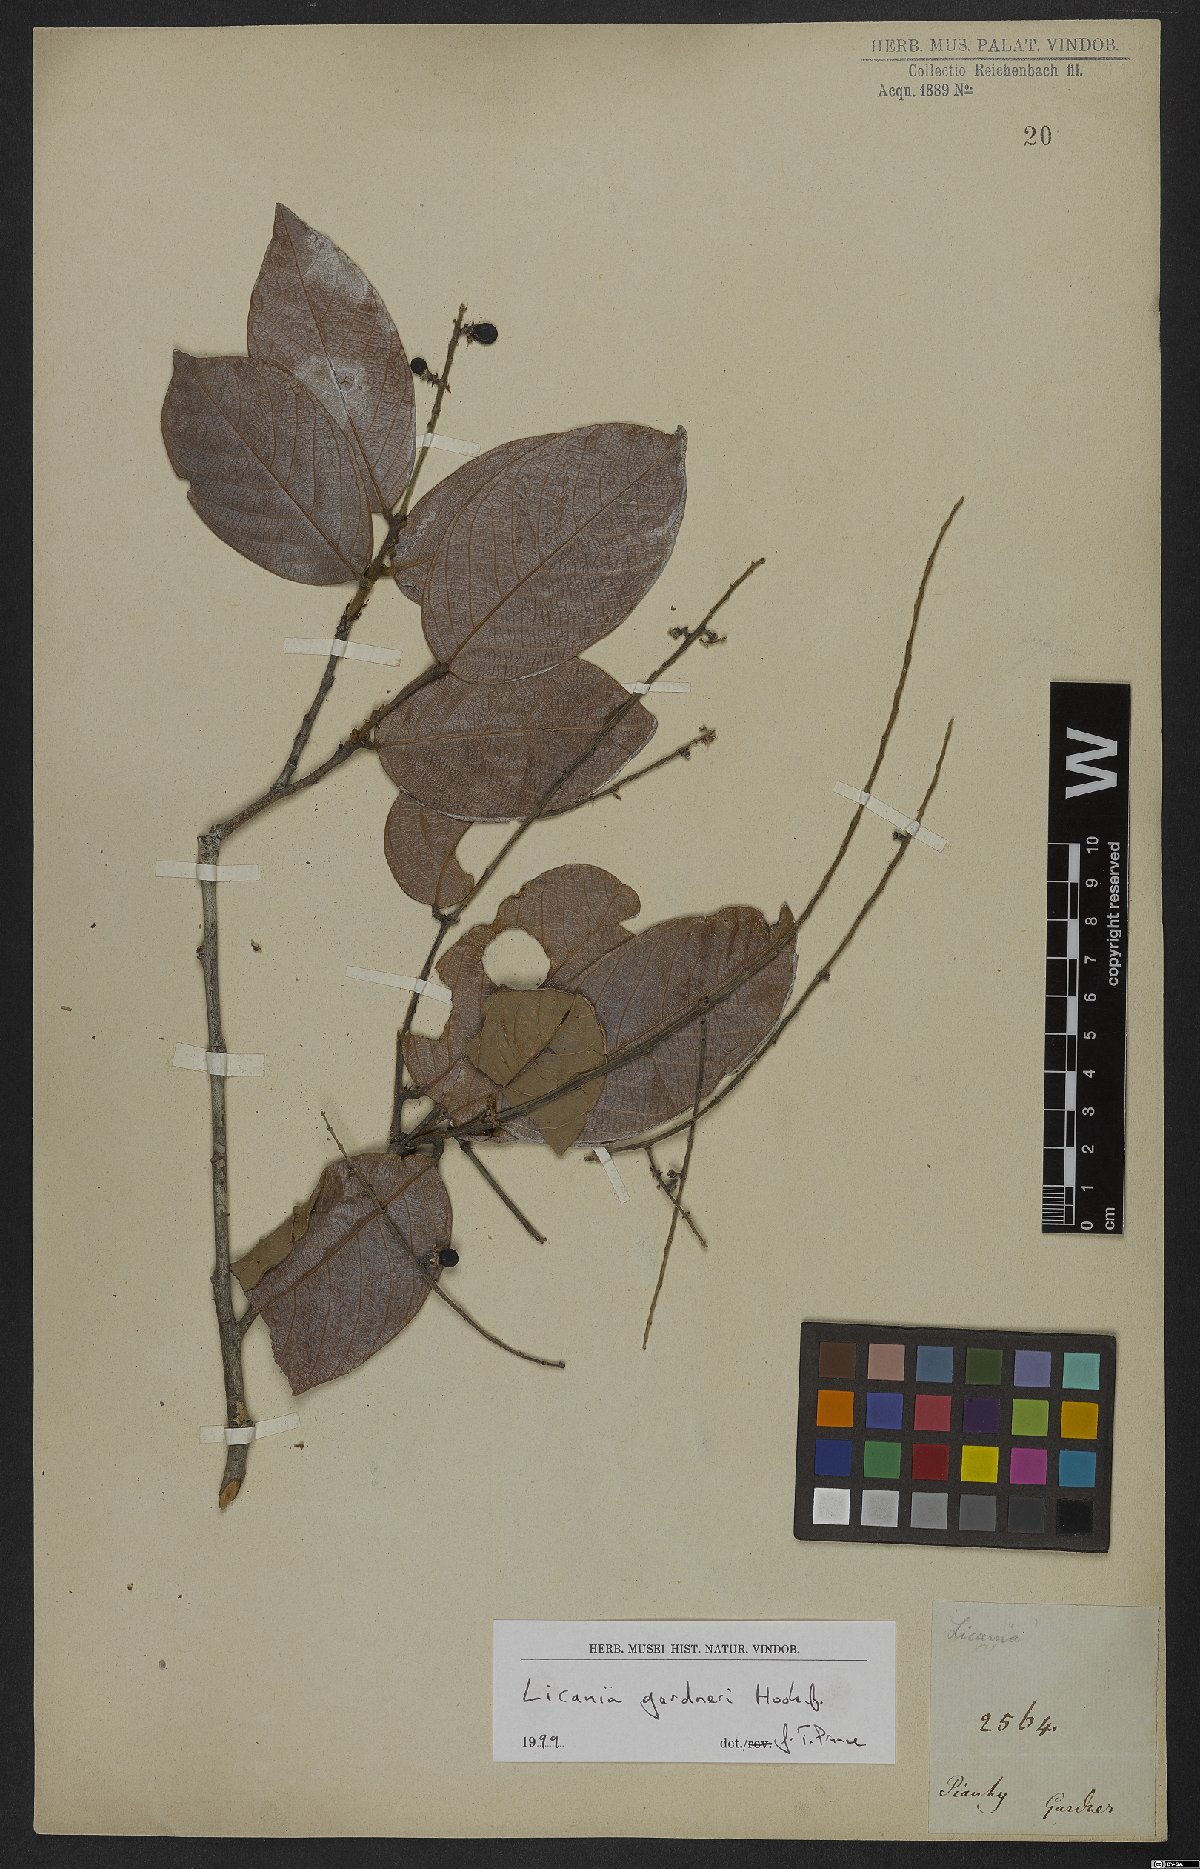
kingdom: Plantae
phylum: Tracheophyta
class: Magnoliopsida
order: Malpighiales
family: Chrysobalanaceae
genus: Leptobalanus
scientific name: Leptobalanus gardneri
